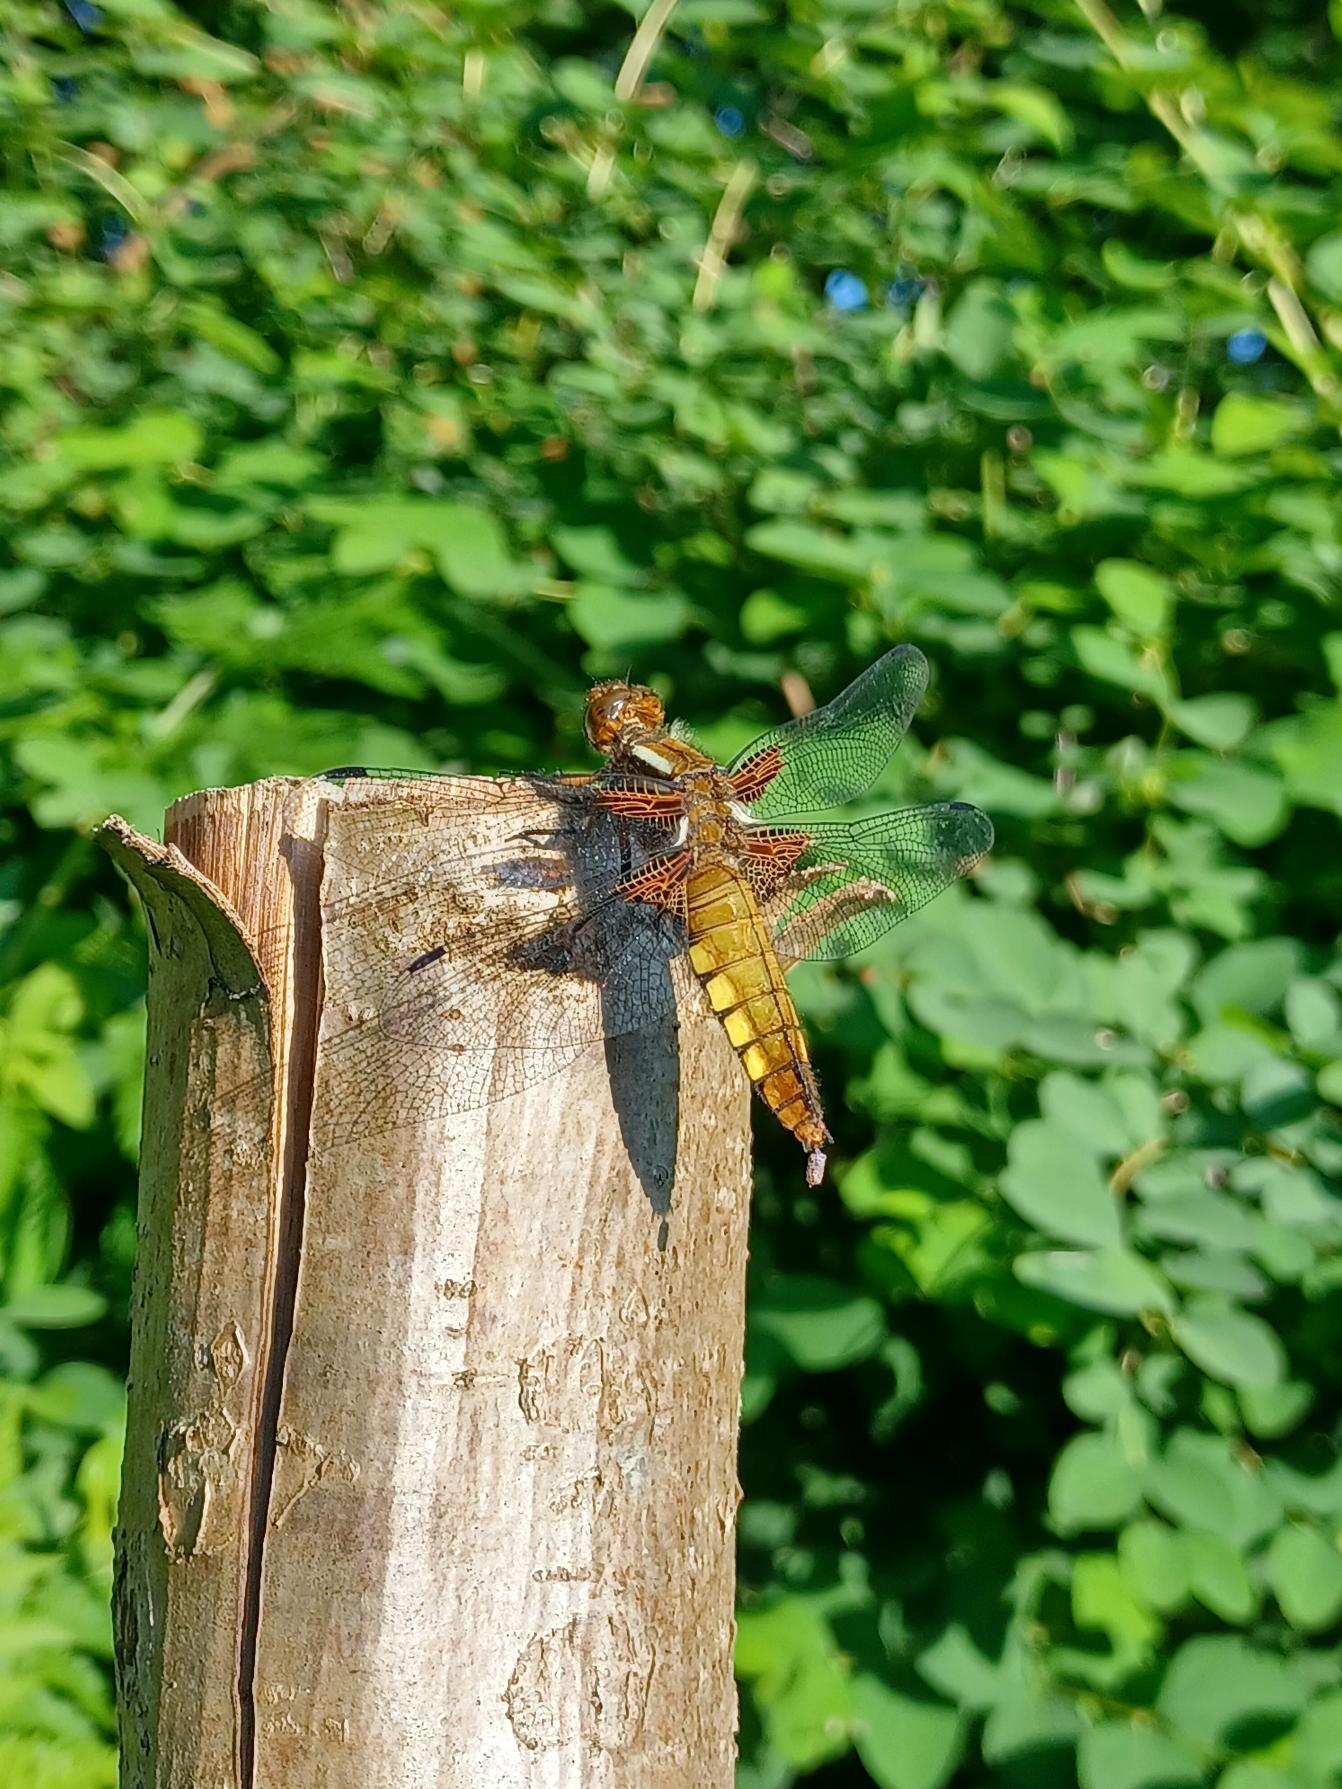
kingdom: Animalia
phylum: Arthropoda
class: Insecta
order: Odonata
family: Libellulidae
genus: Libellula
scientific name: Libellula depressa
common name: Blå libel
